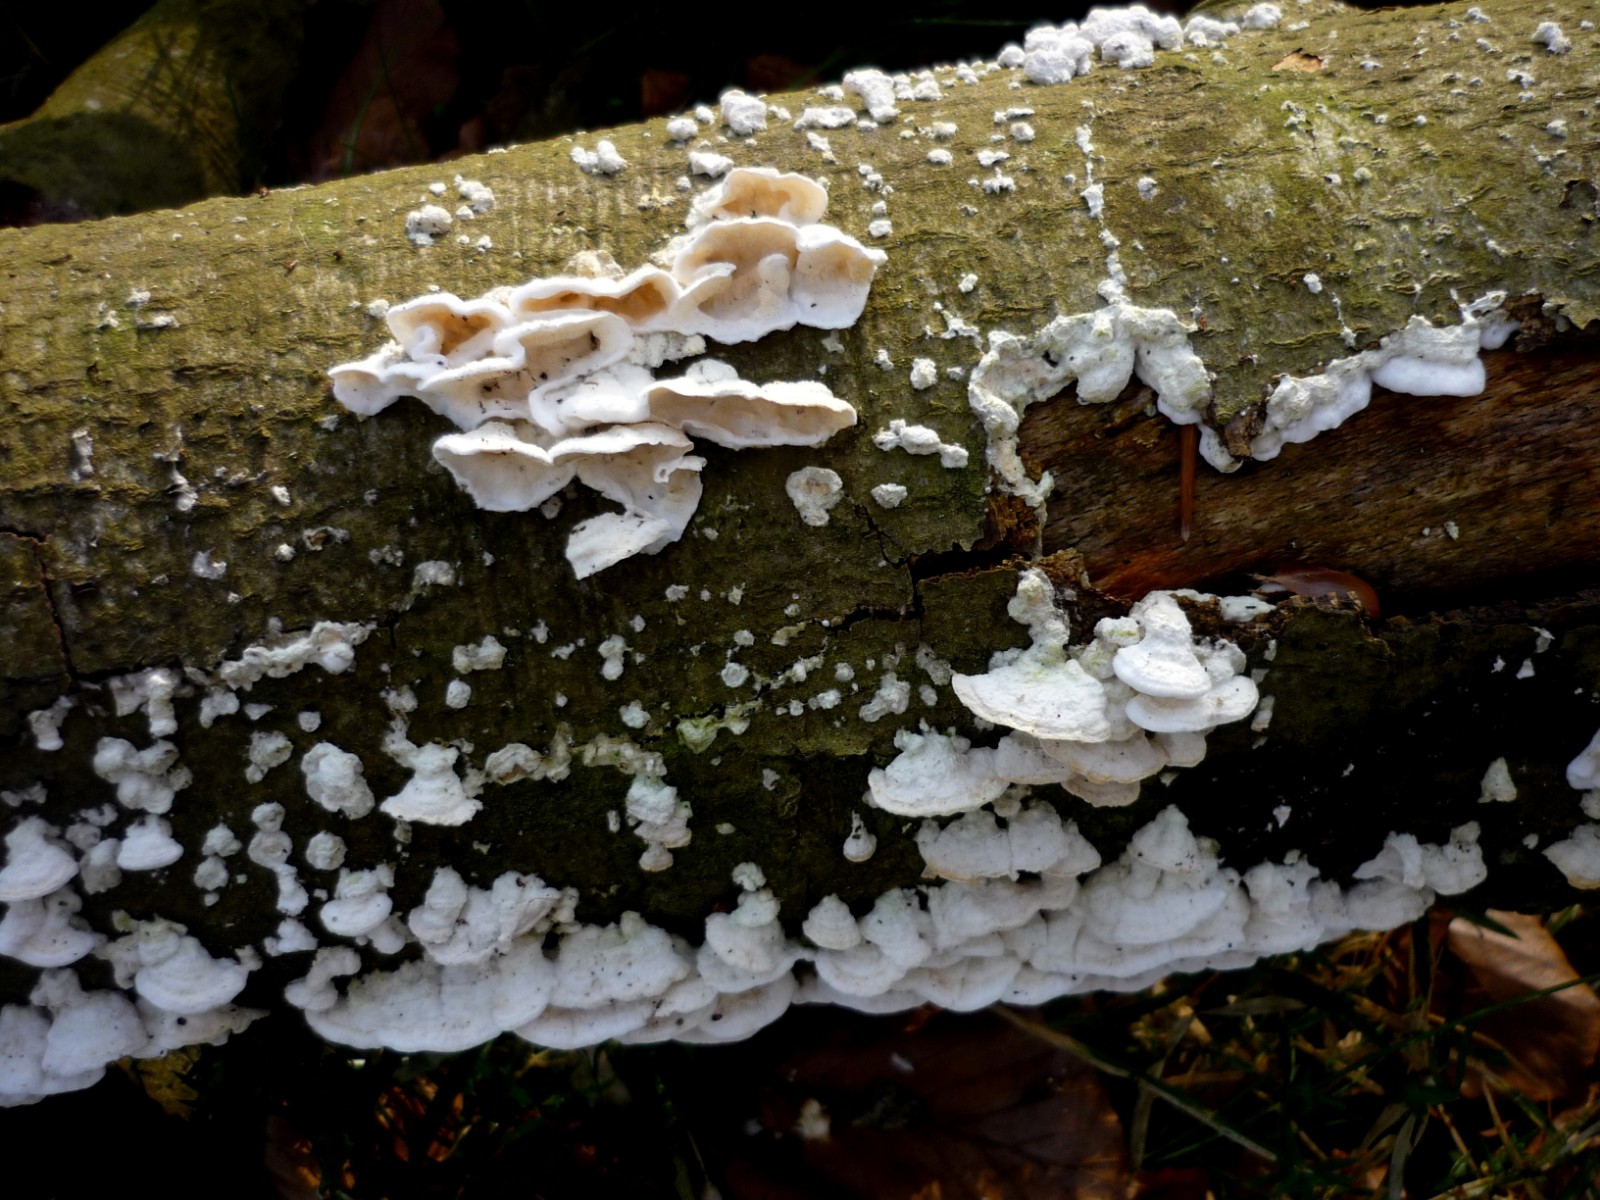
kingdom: Fungi
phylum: Basidiomycota
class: Agaricomycetes
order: Polyporales
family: Irpicaceae
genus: Byssomerulius
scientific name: Byssomerulius corium
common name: læder-åresvamp
